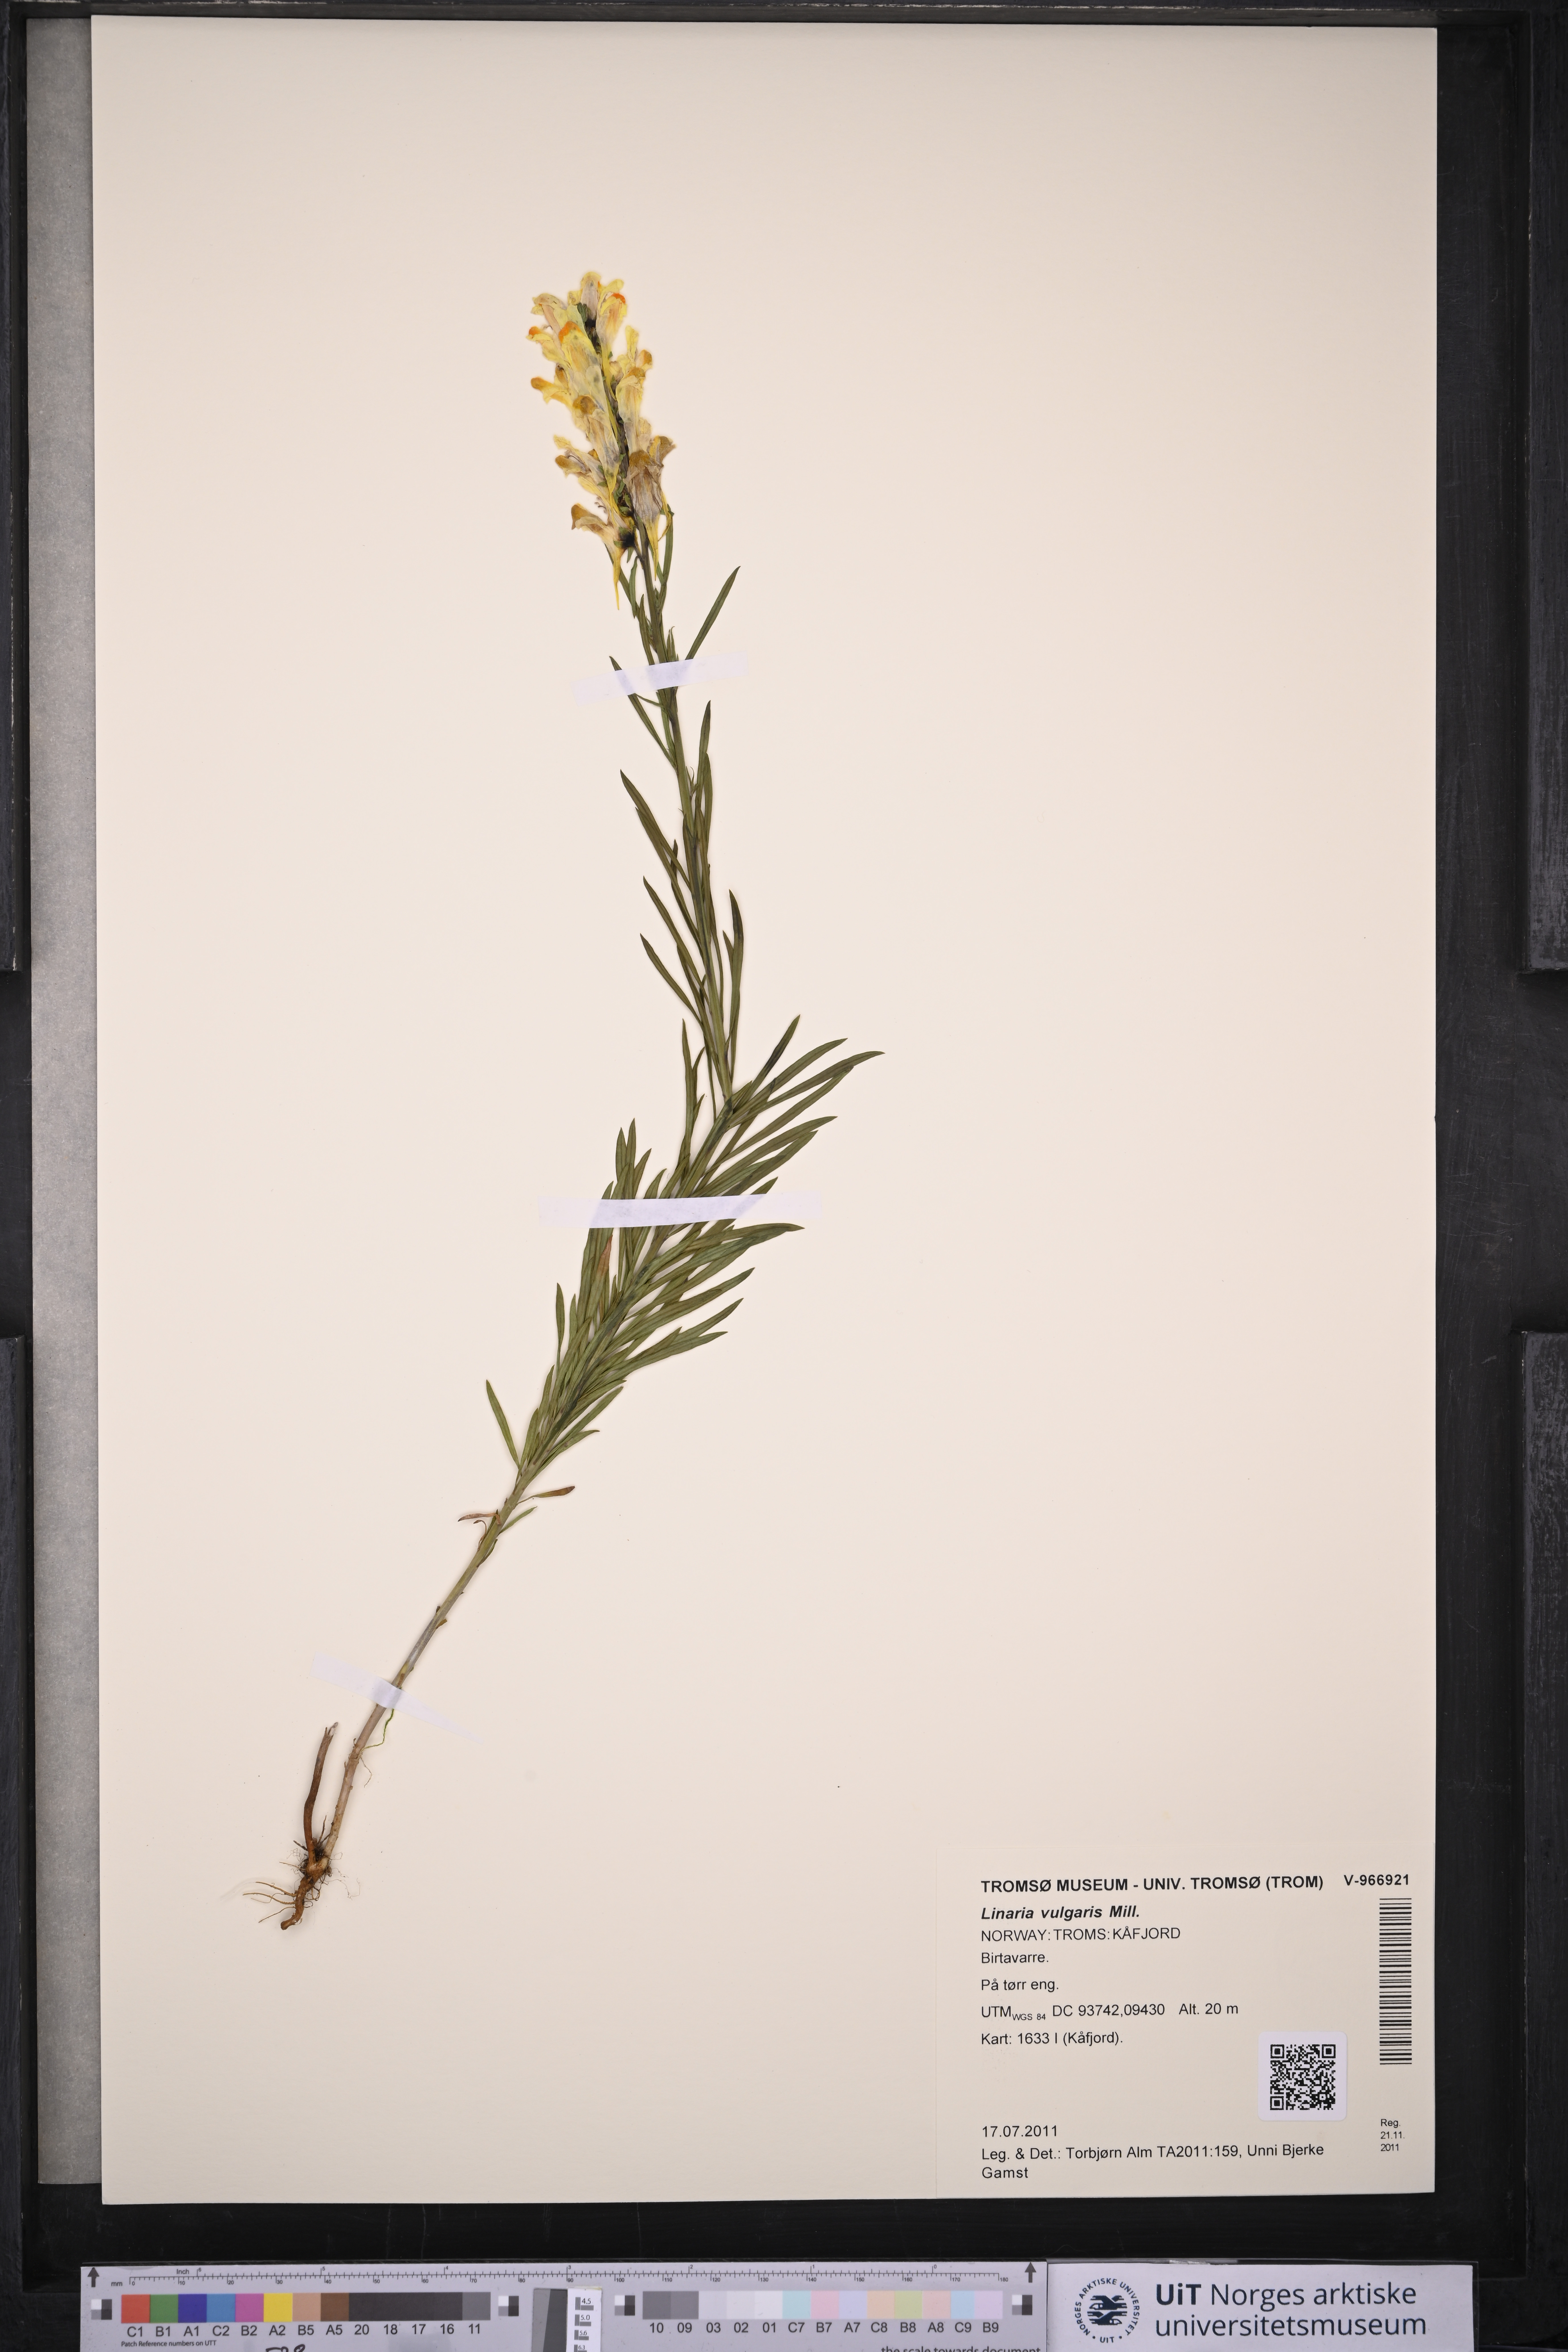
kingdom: Plantae
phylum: Tracheophyta
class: Magnoliopsida
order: Lamiales
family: Plantaginaceae
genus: Linaria
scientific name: Linaria vulgaris
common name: Butter and eggs
